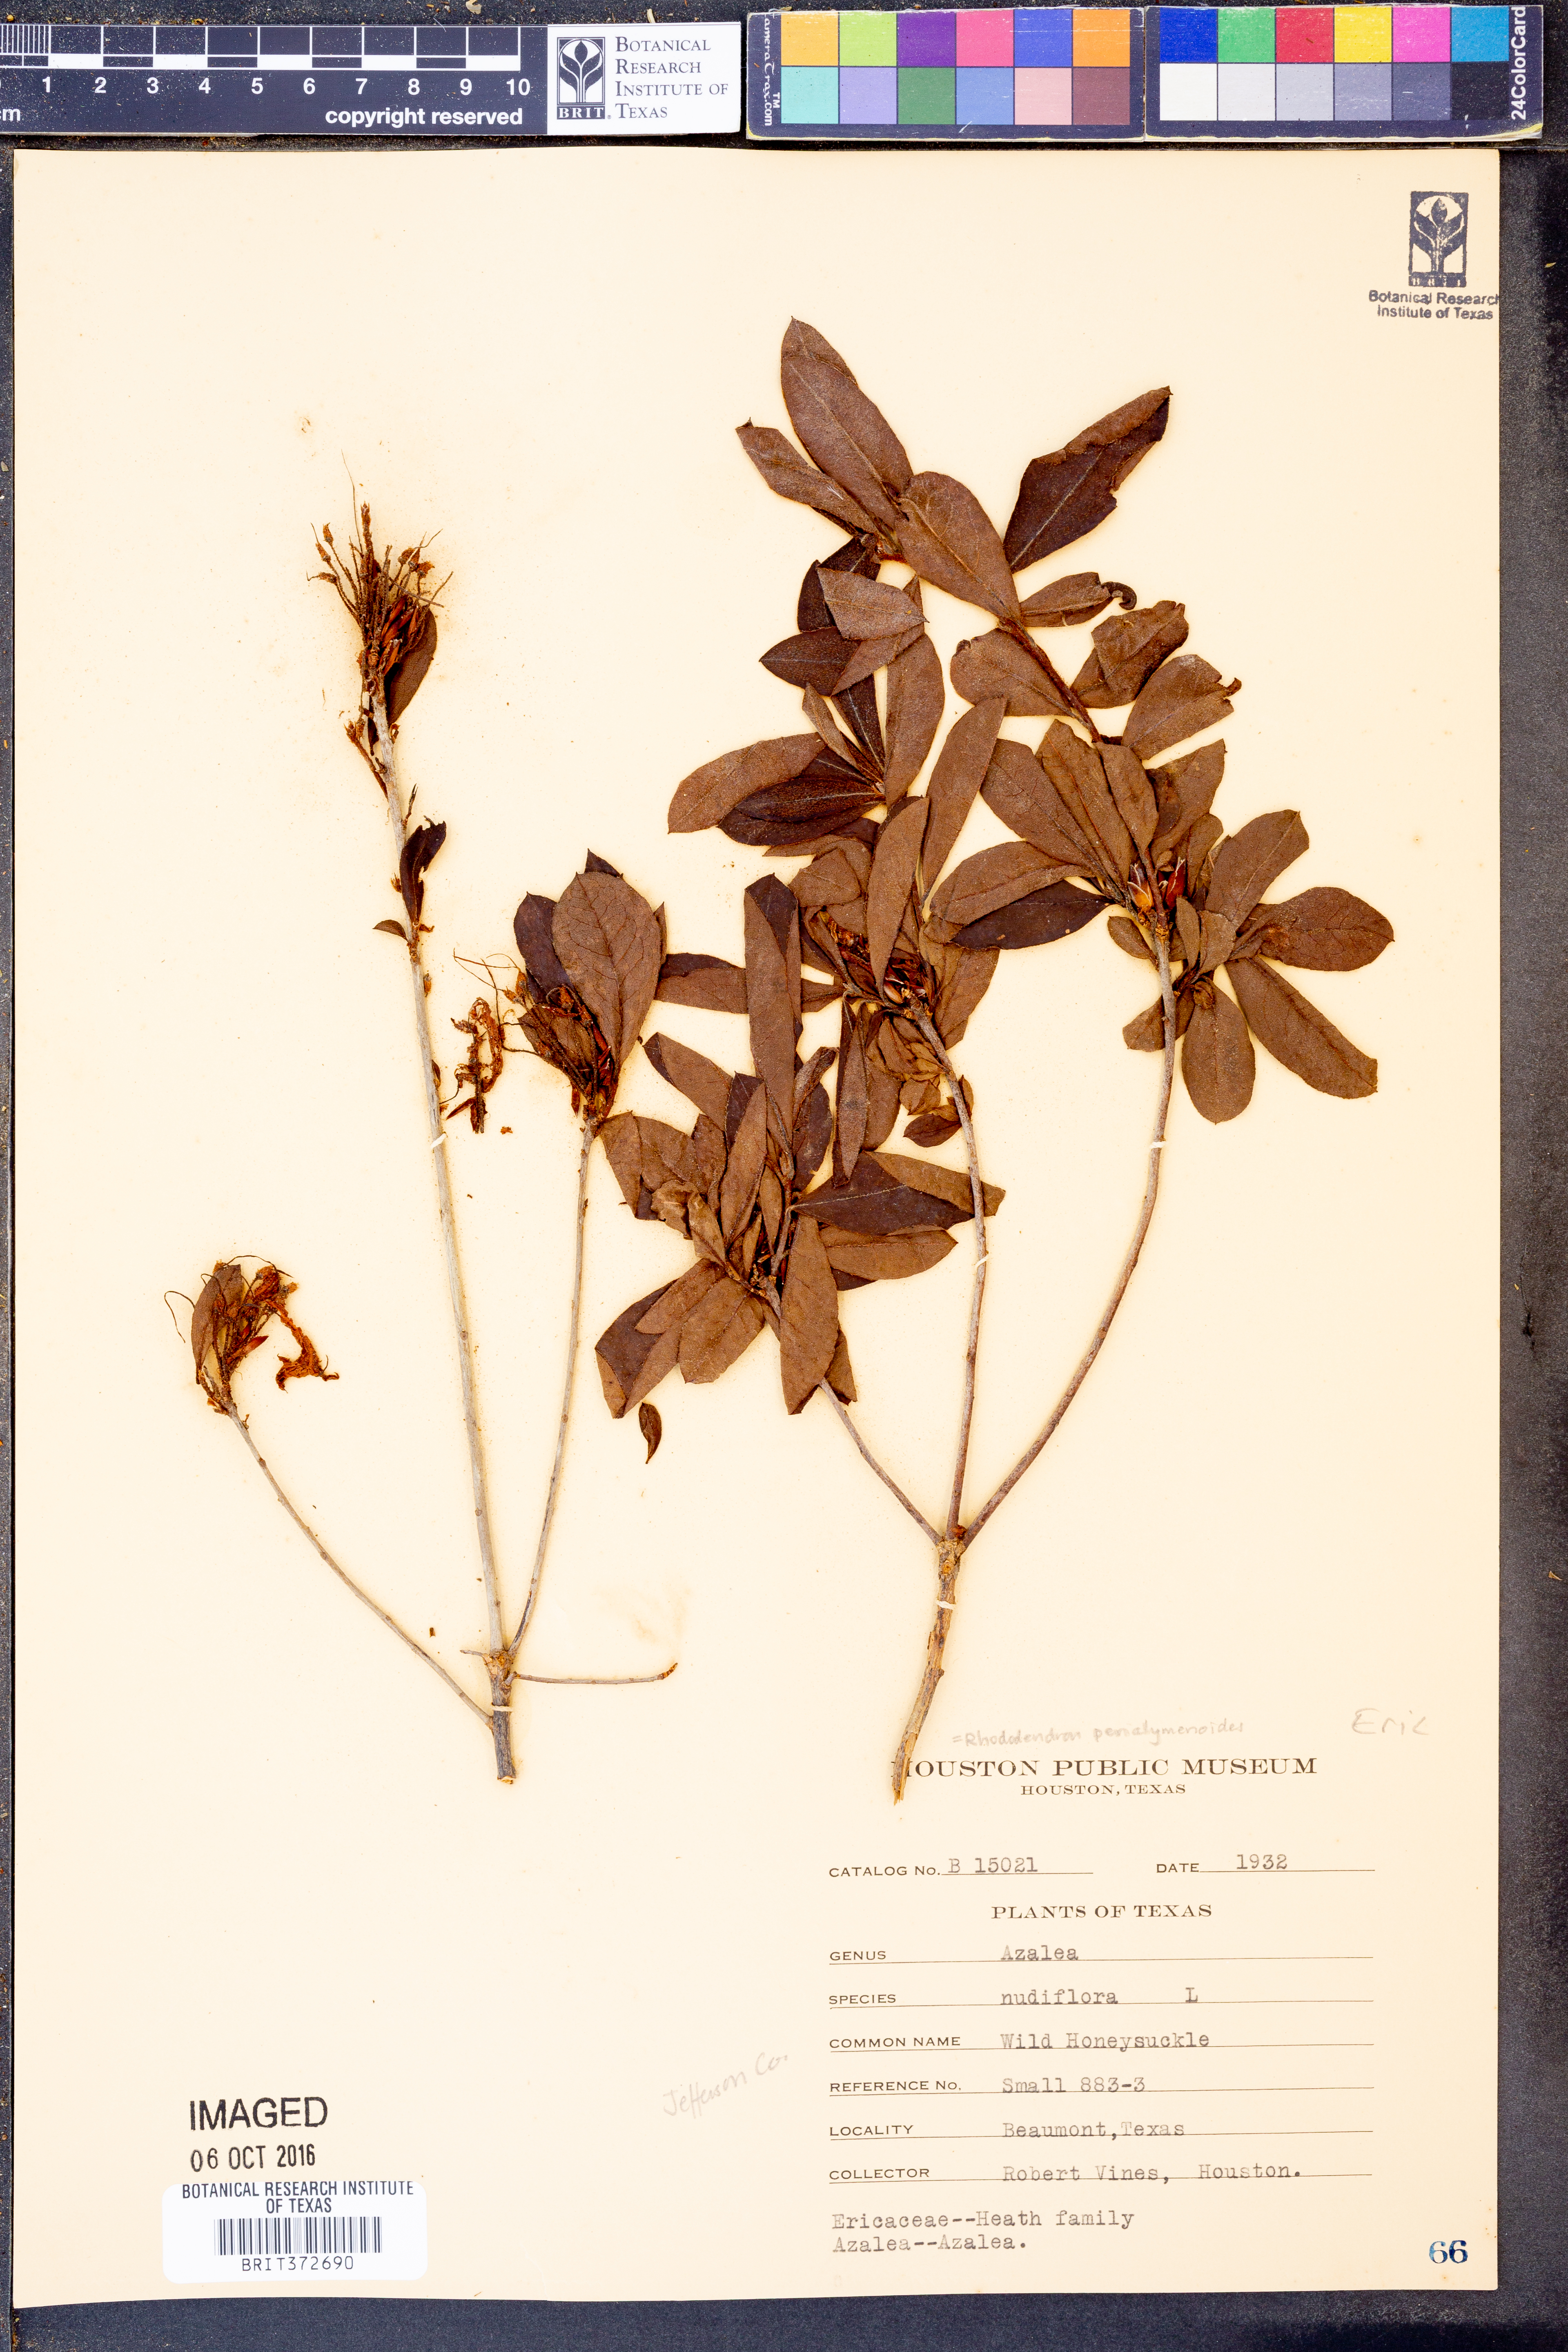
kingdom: Plantae
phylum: Tracheophyta
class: Magnoliopsida
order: Ericales
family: Ericaceae
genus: Rhododendron
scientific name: Rhododendron periclymenoides
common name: Election-pink
